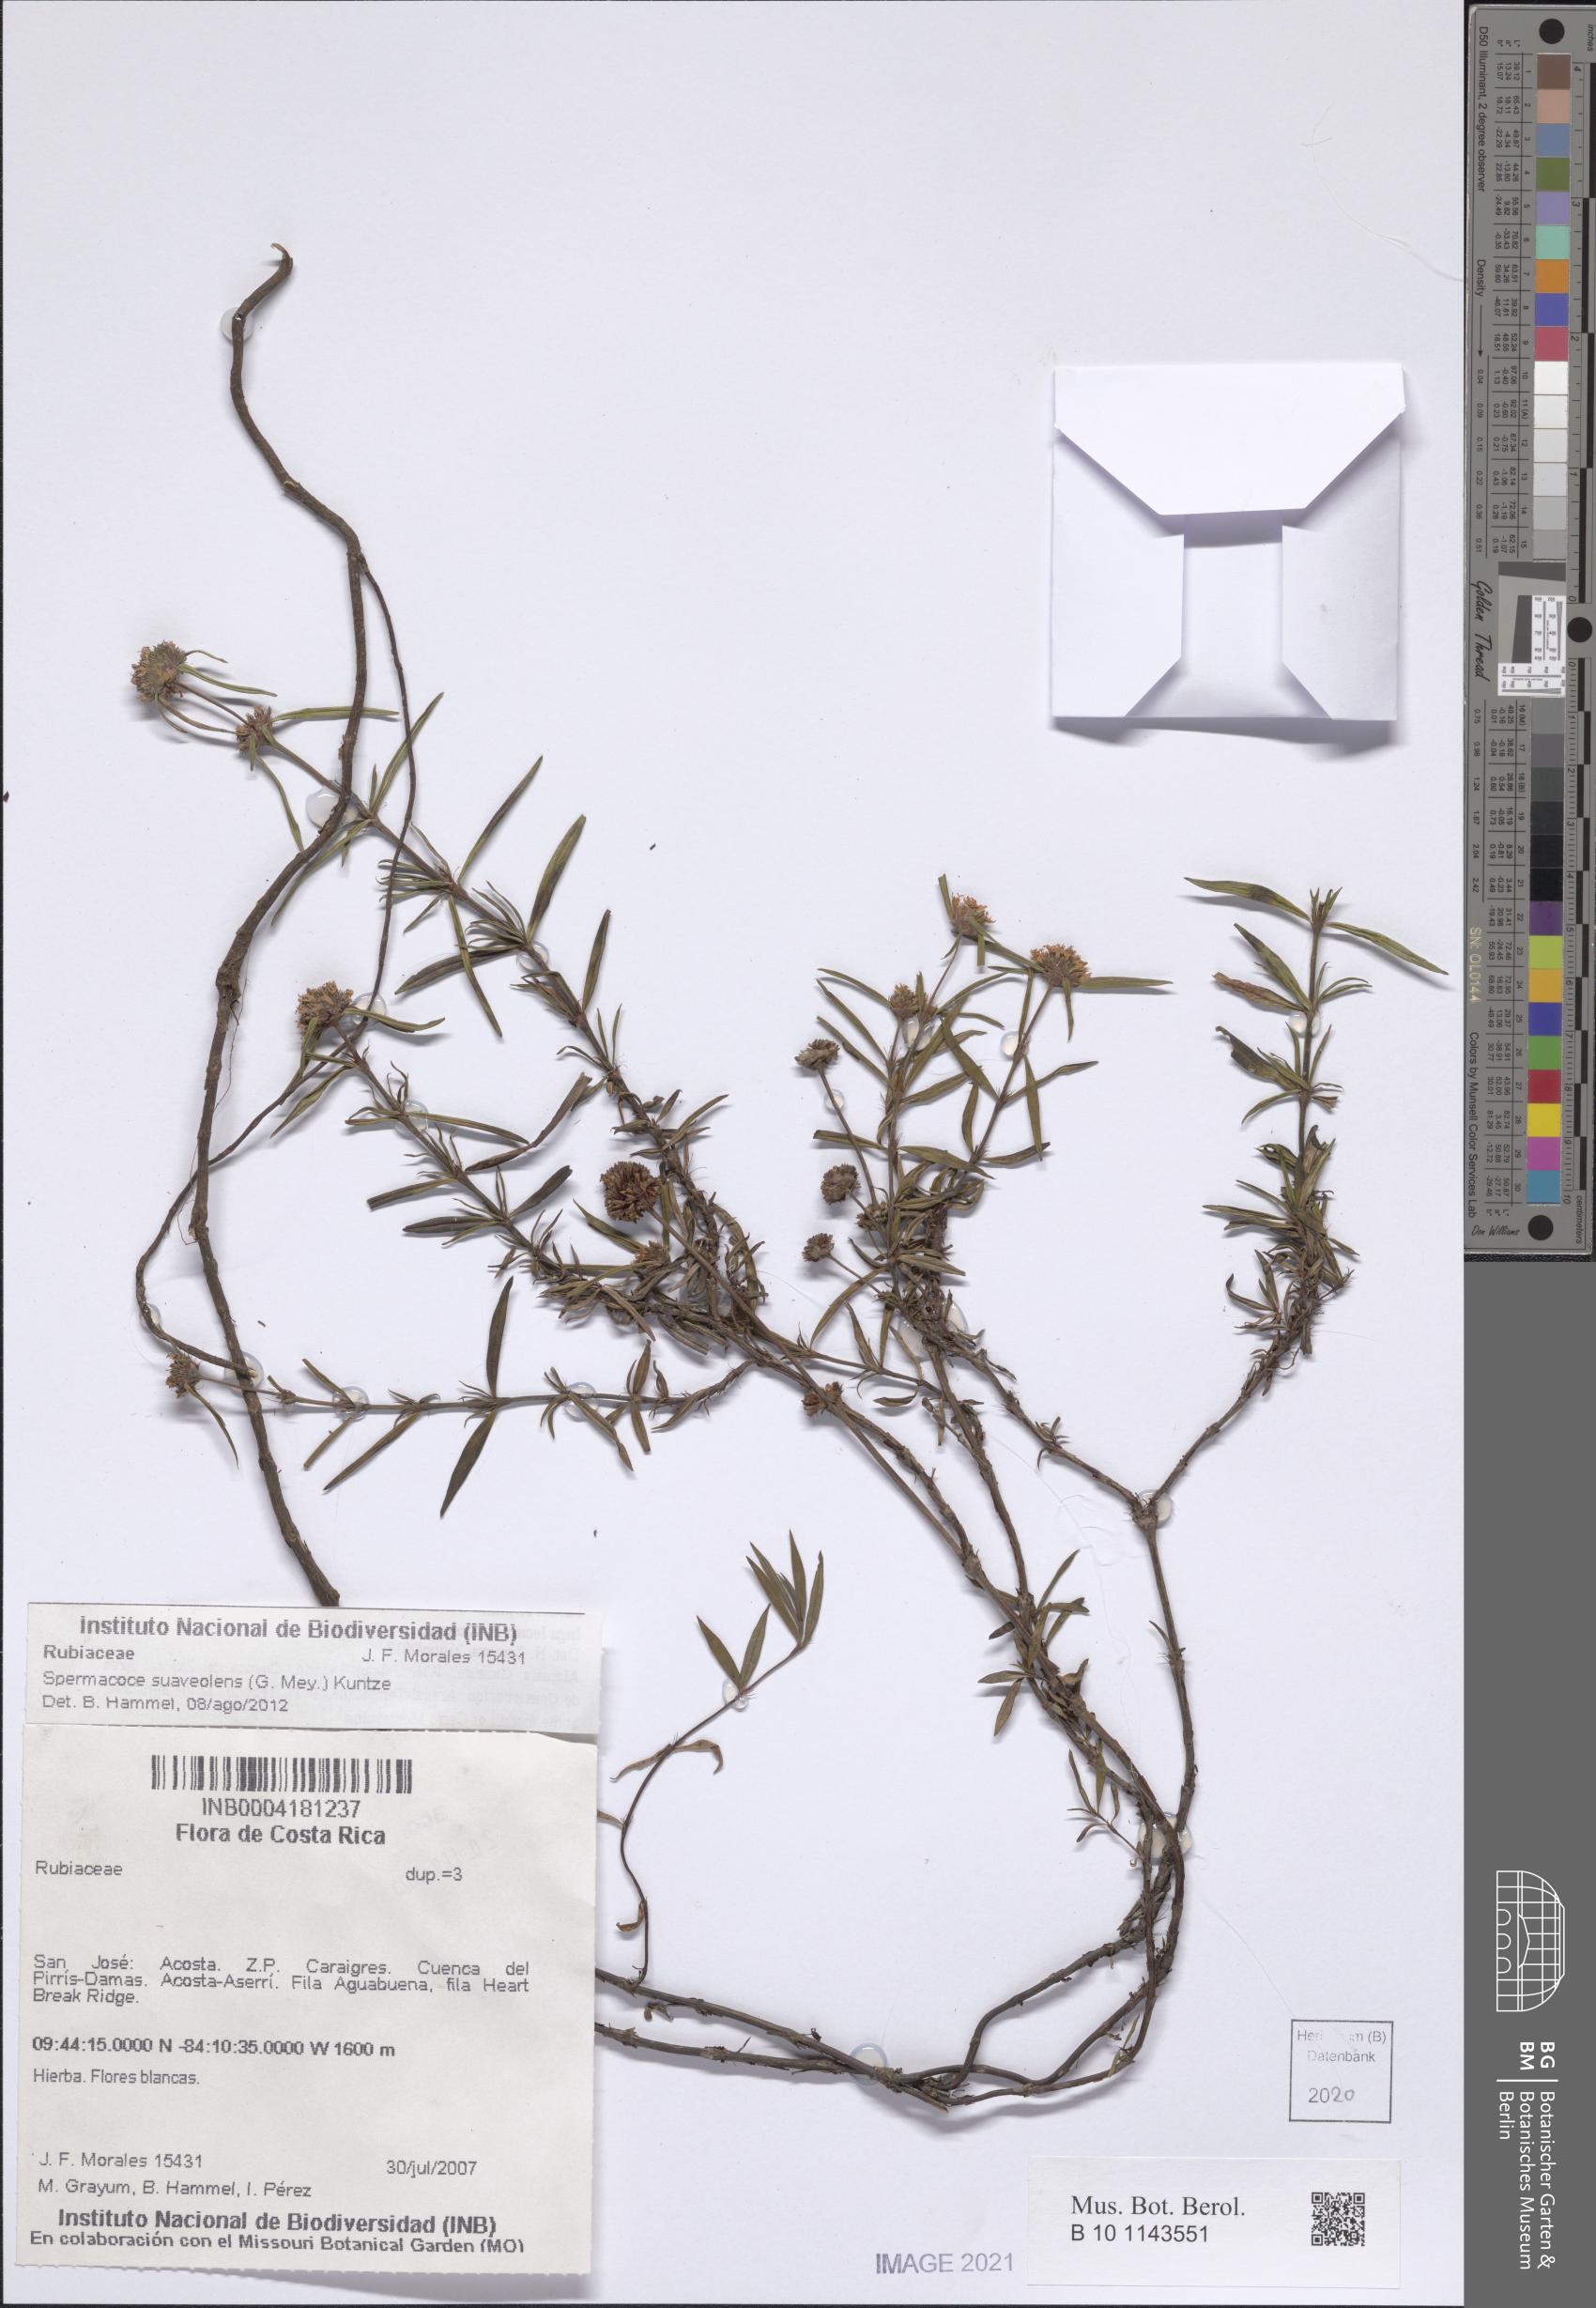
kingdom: Plantae
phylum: Tracheophyta
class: Magnoliopsida
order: Gentianales
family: Rubiaceae
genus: Spermacoce
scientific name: Spermacoce suaveolens
